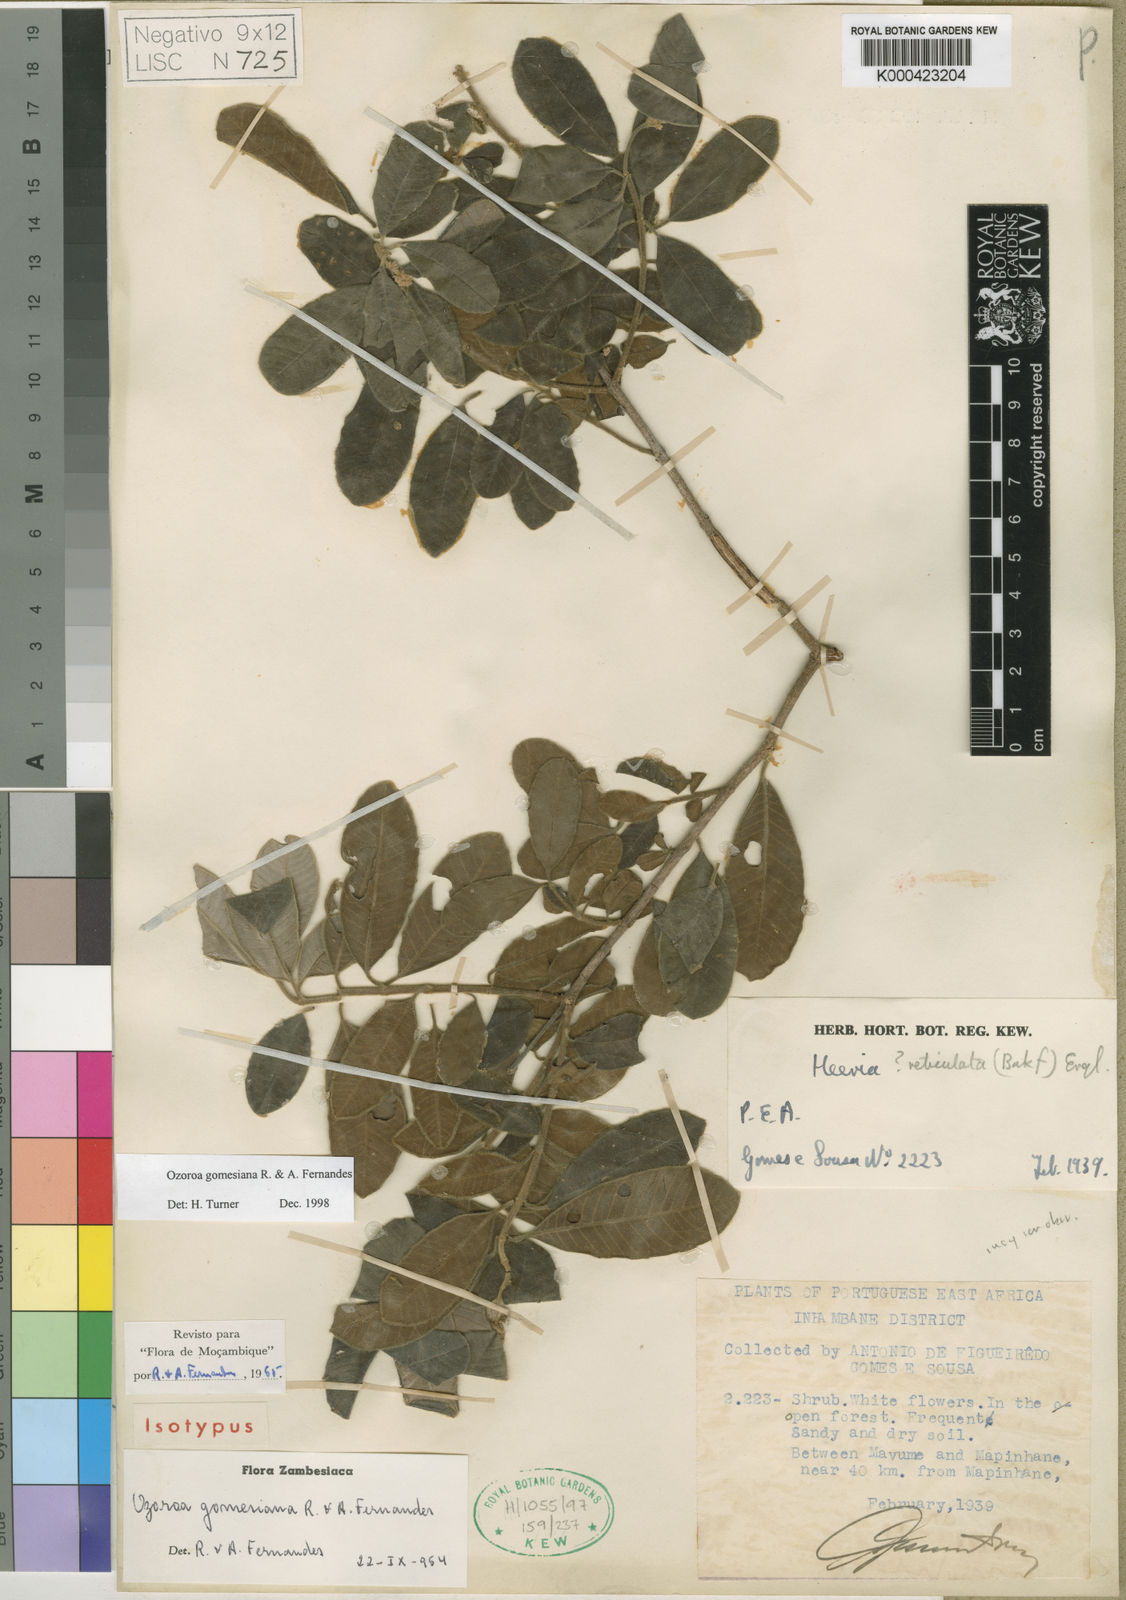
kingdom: Plantae
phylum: Tracheophyta
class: Magnoliopsida
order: Sapindales
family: Anacardiaceae
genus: Ozoroa
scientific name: Ozoroa obovata
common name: Broad-leaved resin tree
